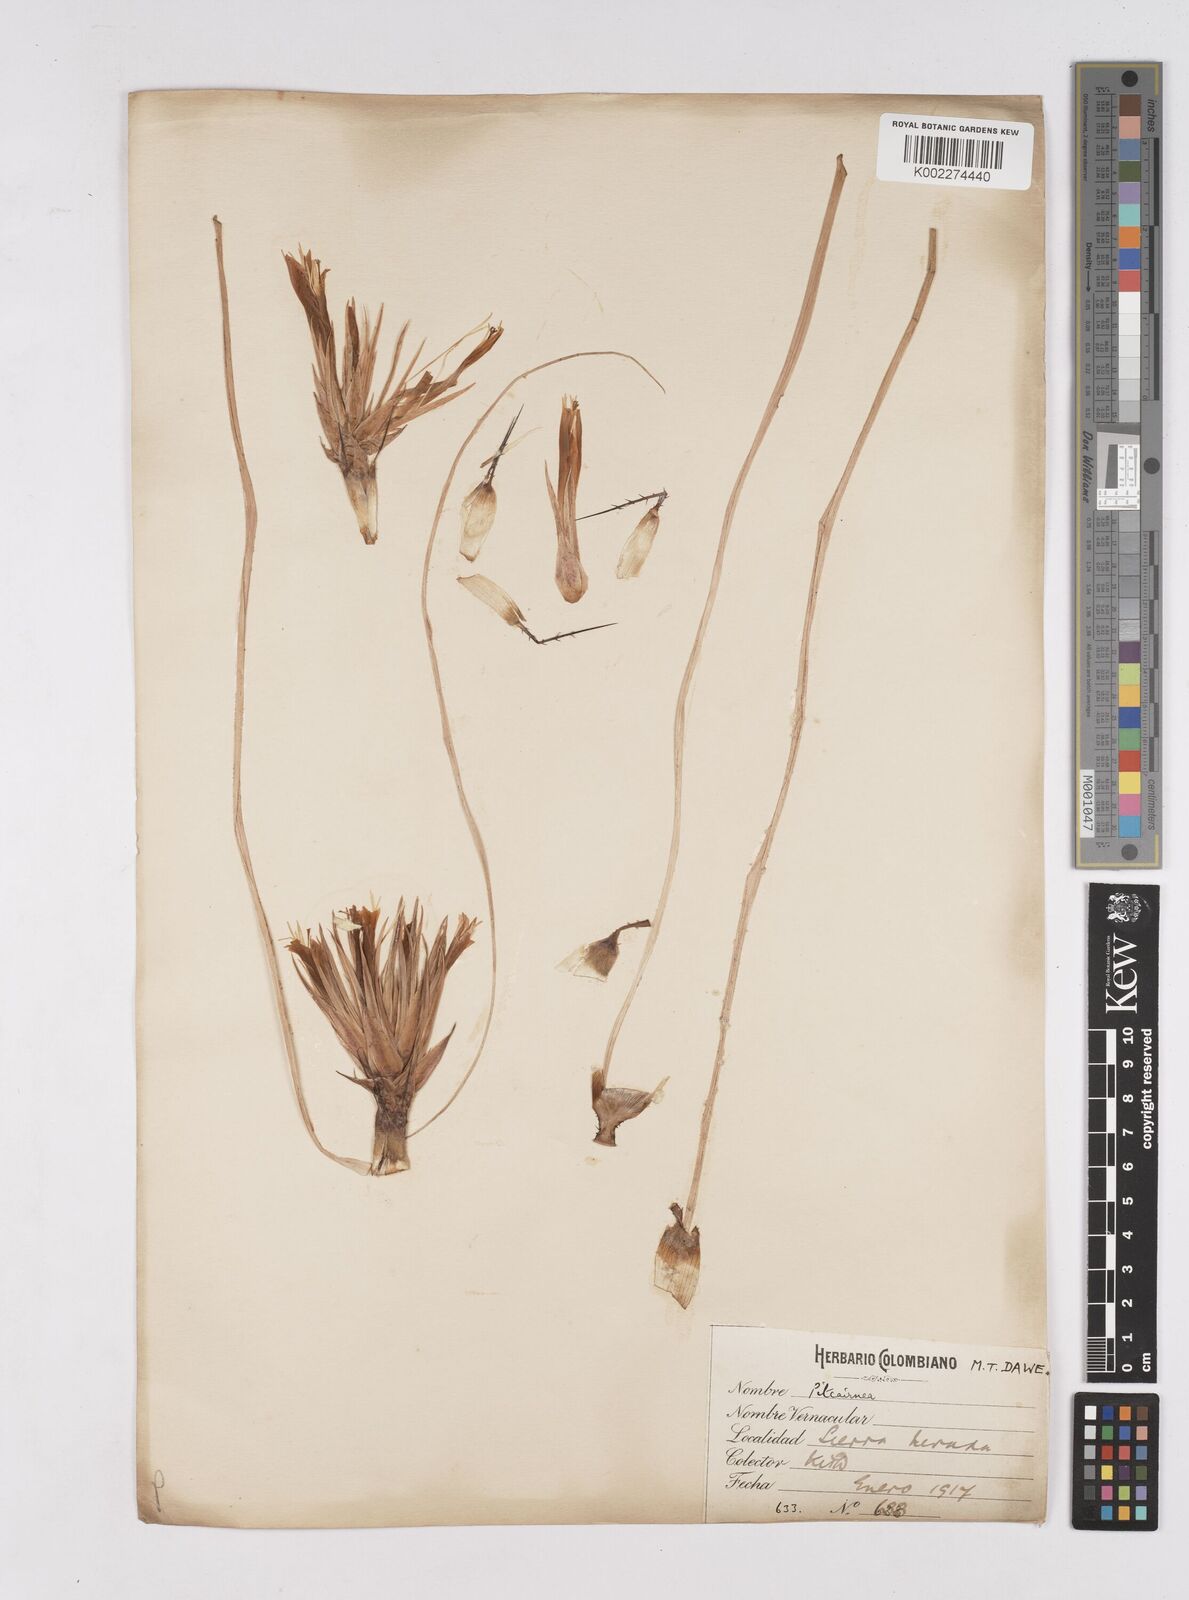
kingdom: Plantae
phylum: Tracheophyta
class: Liliopsida
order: Poales
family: Bromeliaceae
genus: Pitcairnia
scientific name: Pitcairnia heterophylla
